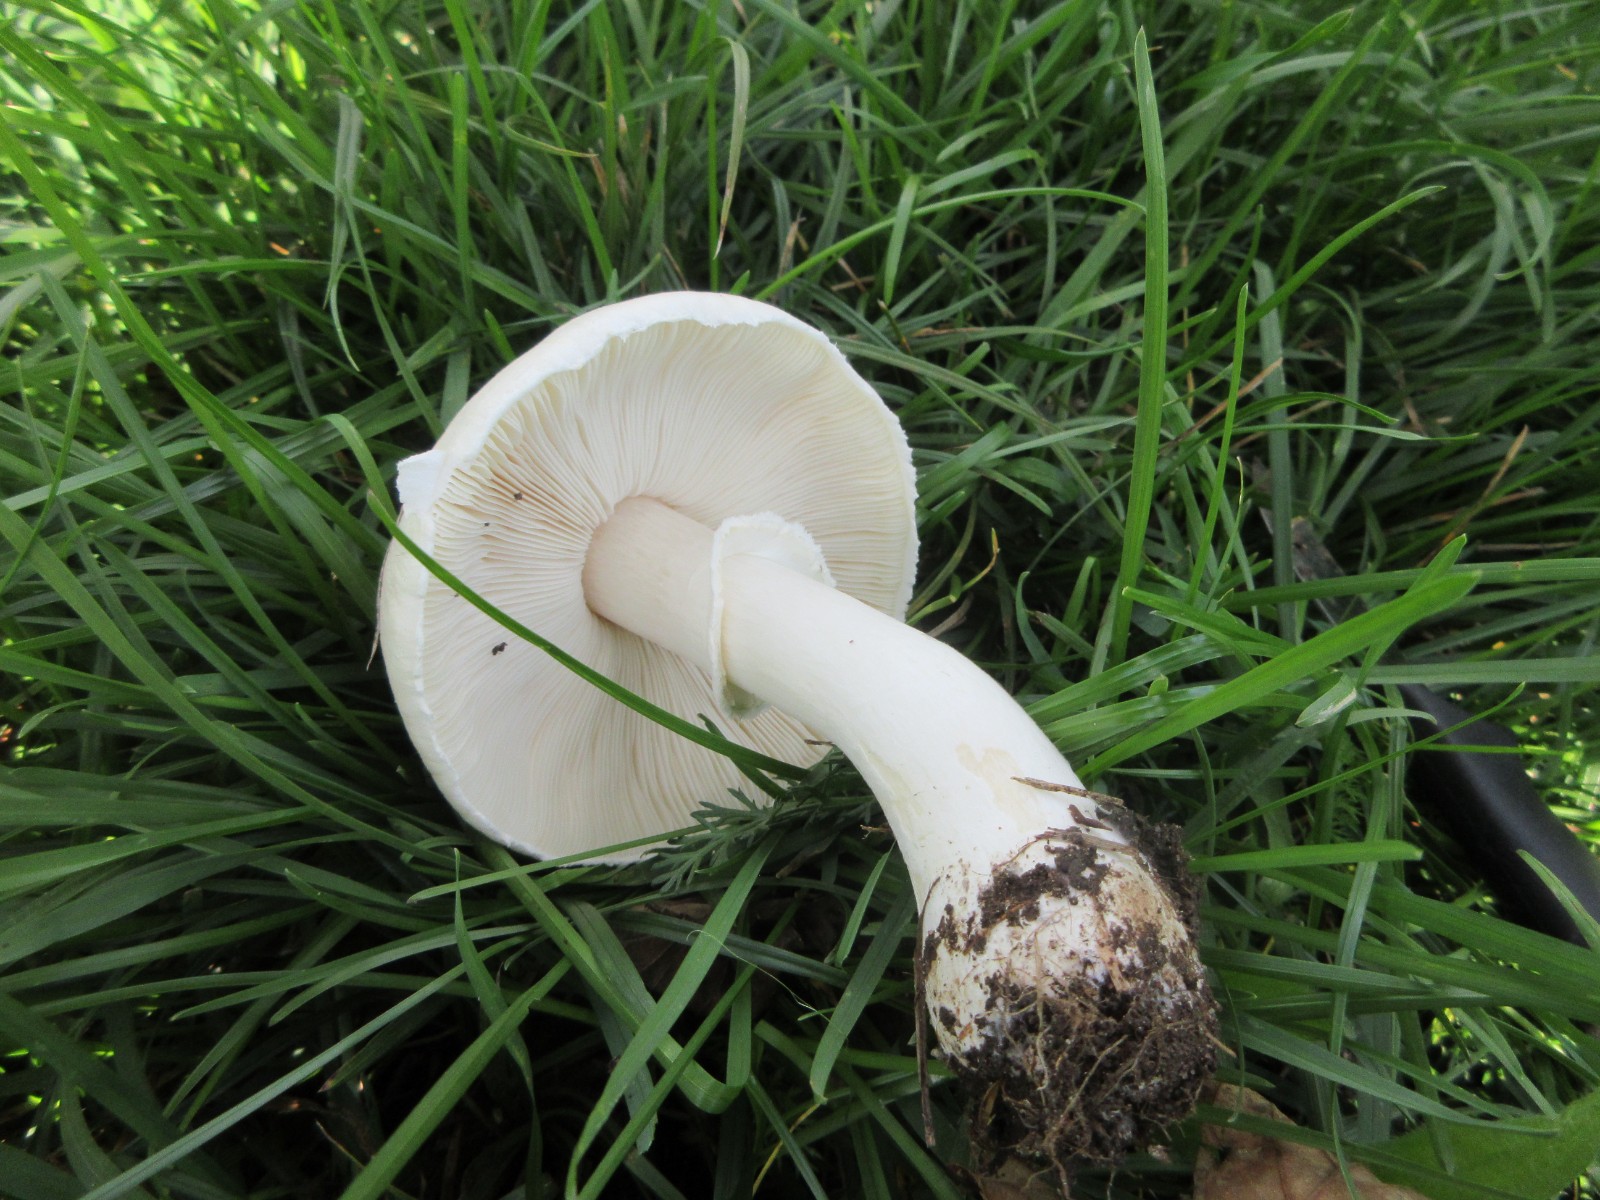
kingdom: Fungi
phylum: Basidiomycota
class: Agaricomycetes
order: Agaricales
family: Agaricaceae
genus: Leucoagaricus
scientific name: Leucoagaricus leucothites
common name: rosabladet silkehat
